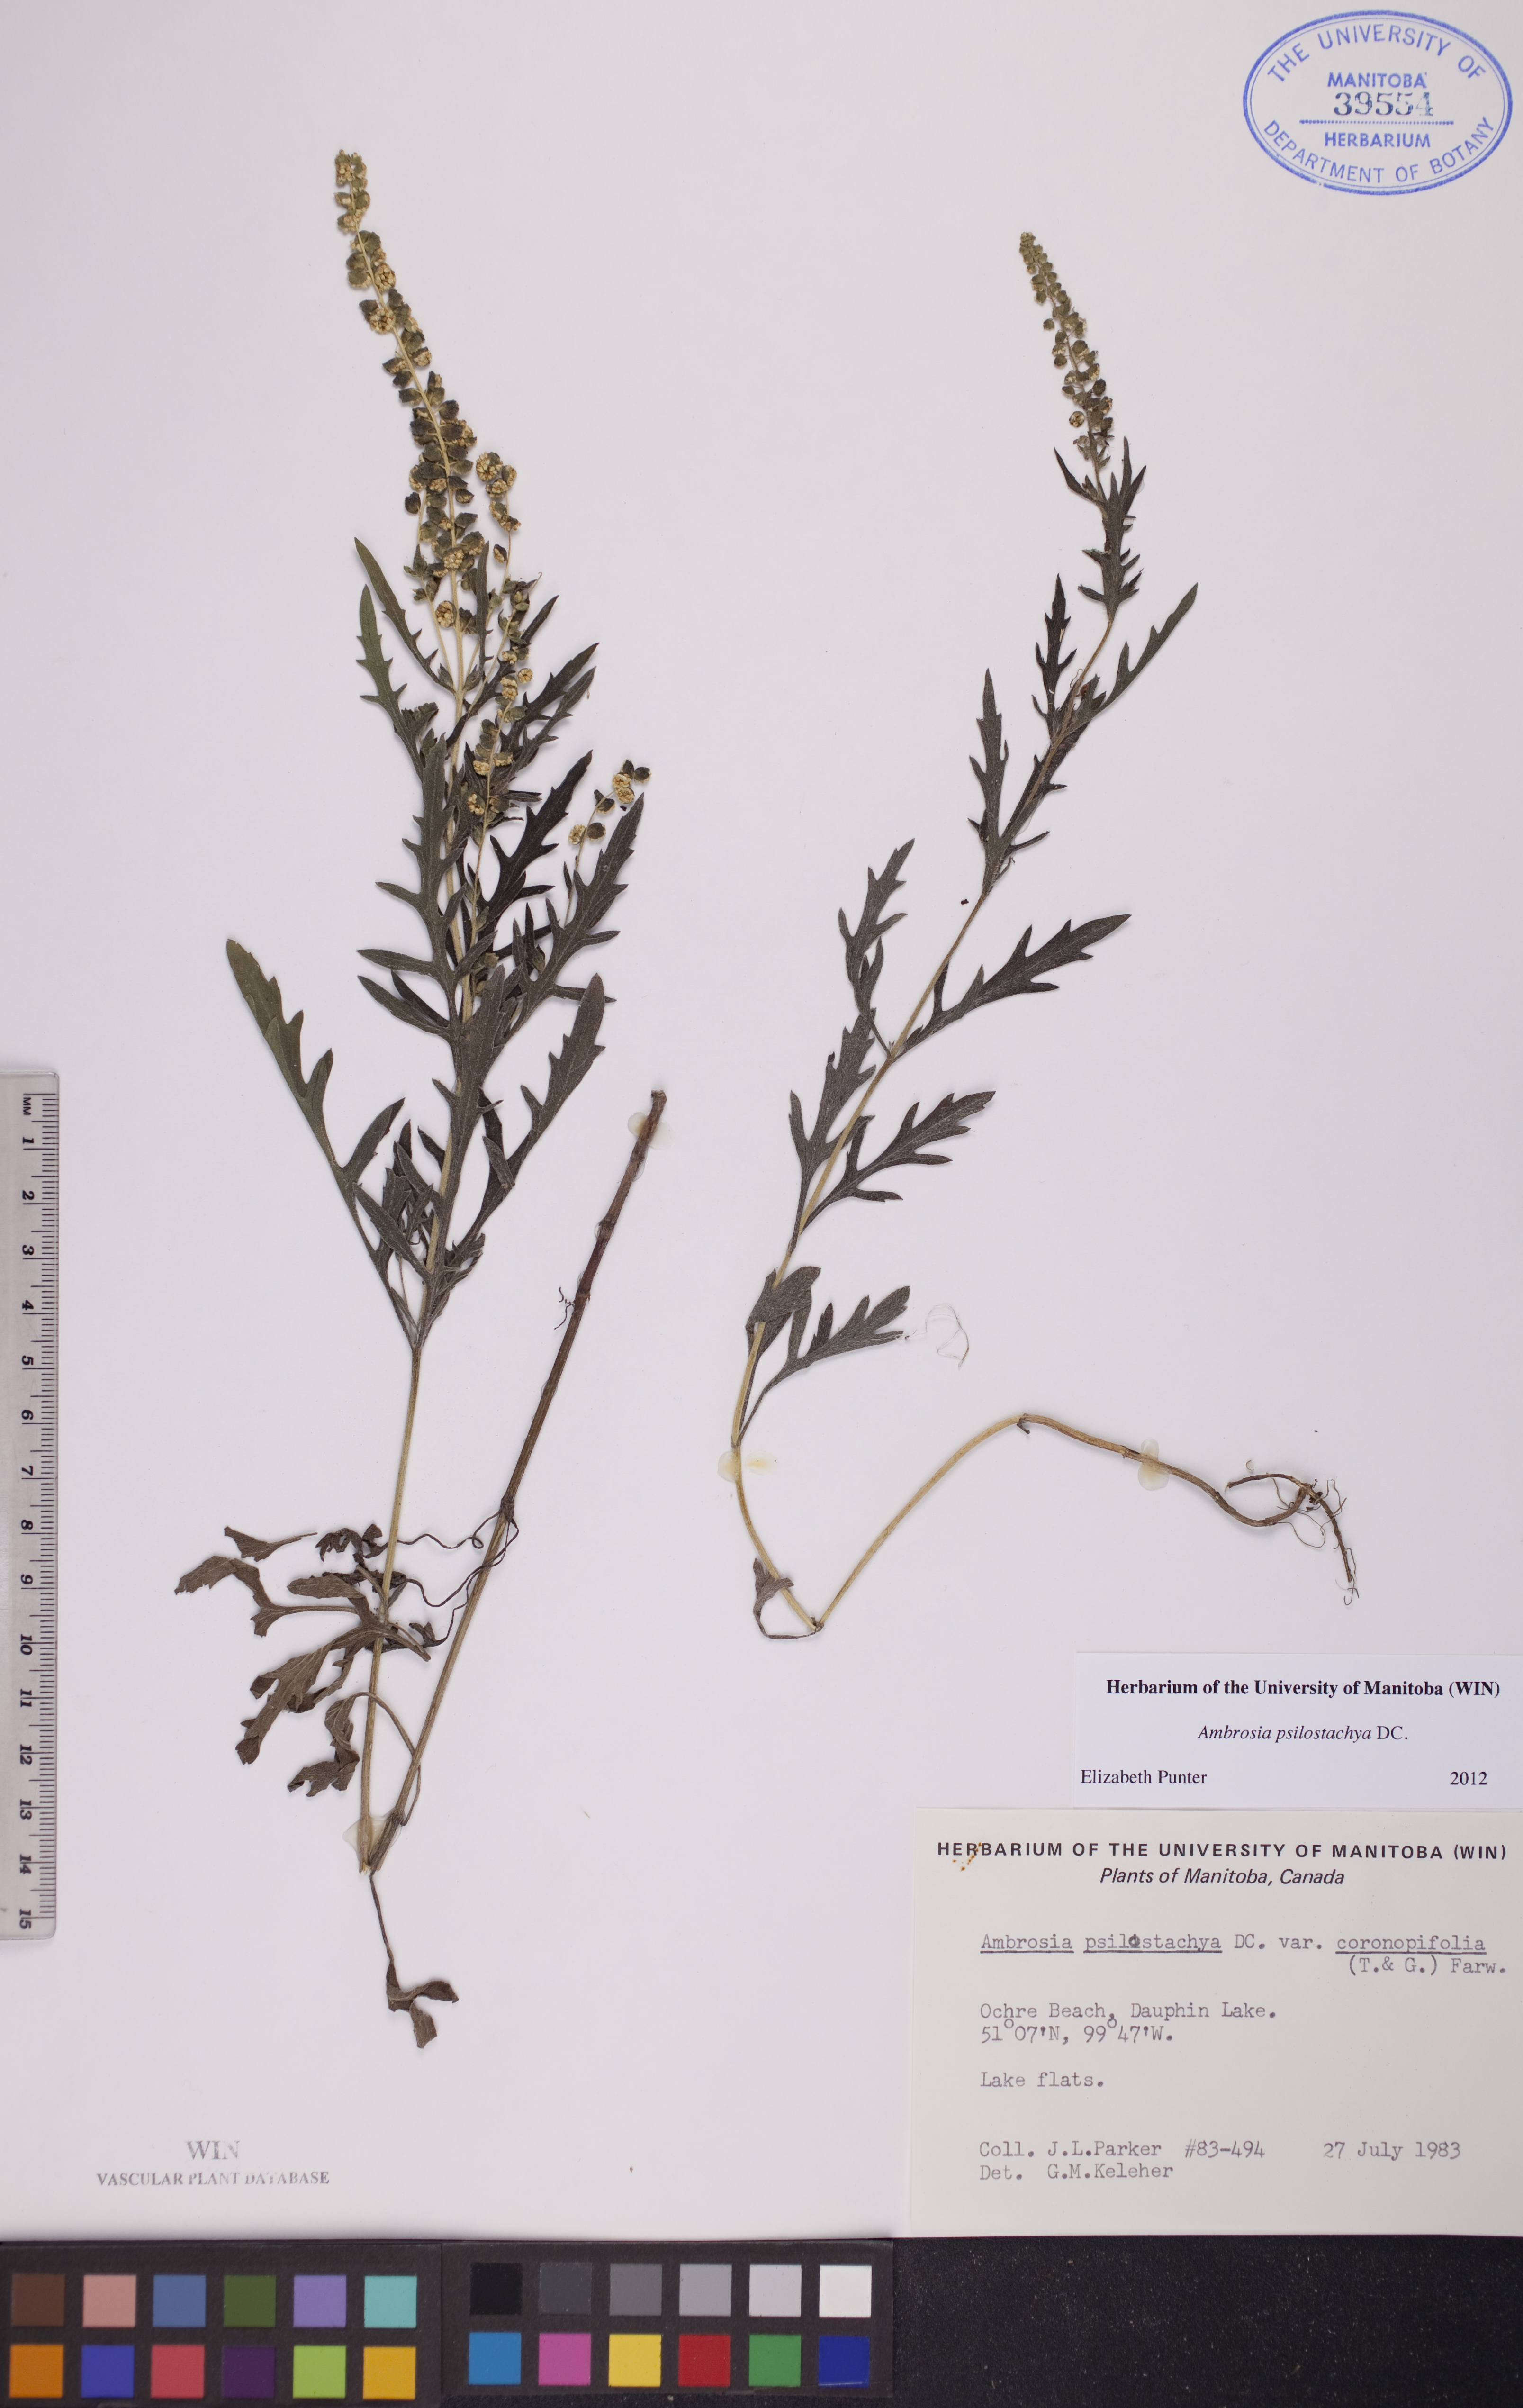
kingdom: Plantae
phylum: Tracheophyta
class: Magnoliopsida
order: Asterales
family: Asteraceae
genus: Ambrosia
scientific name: Ambrosia psilostachya
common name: Perennial ragweed
